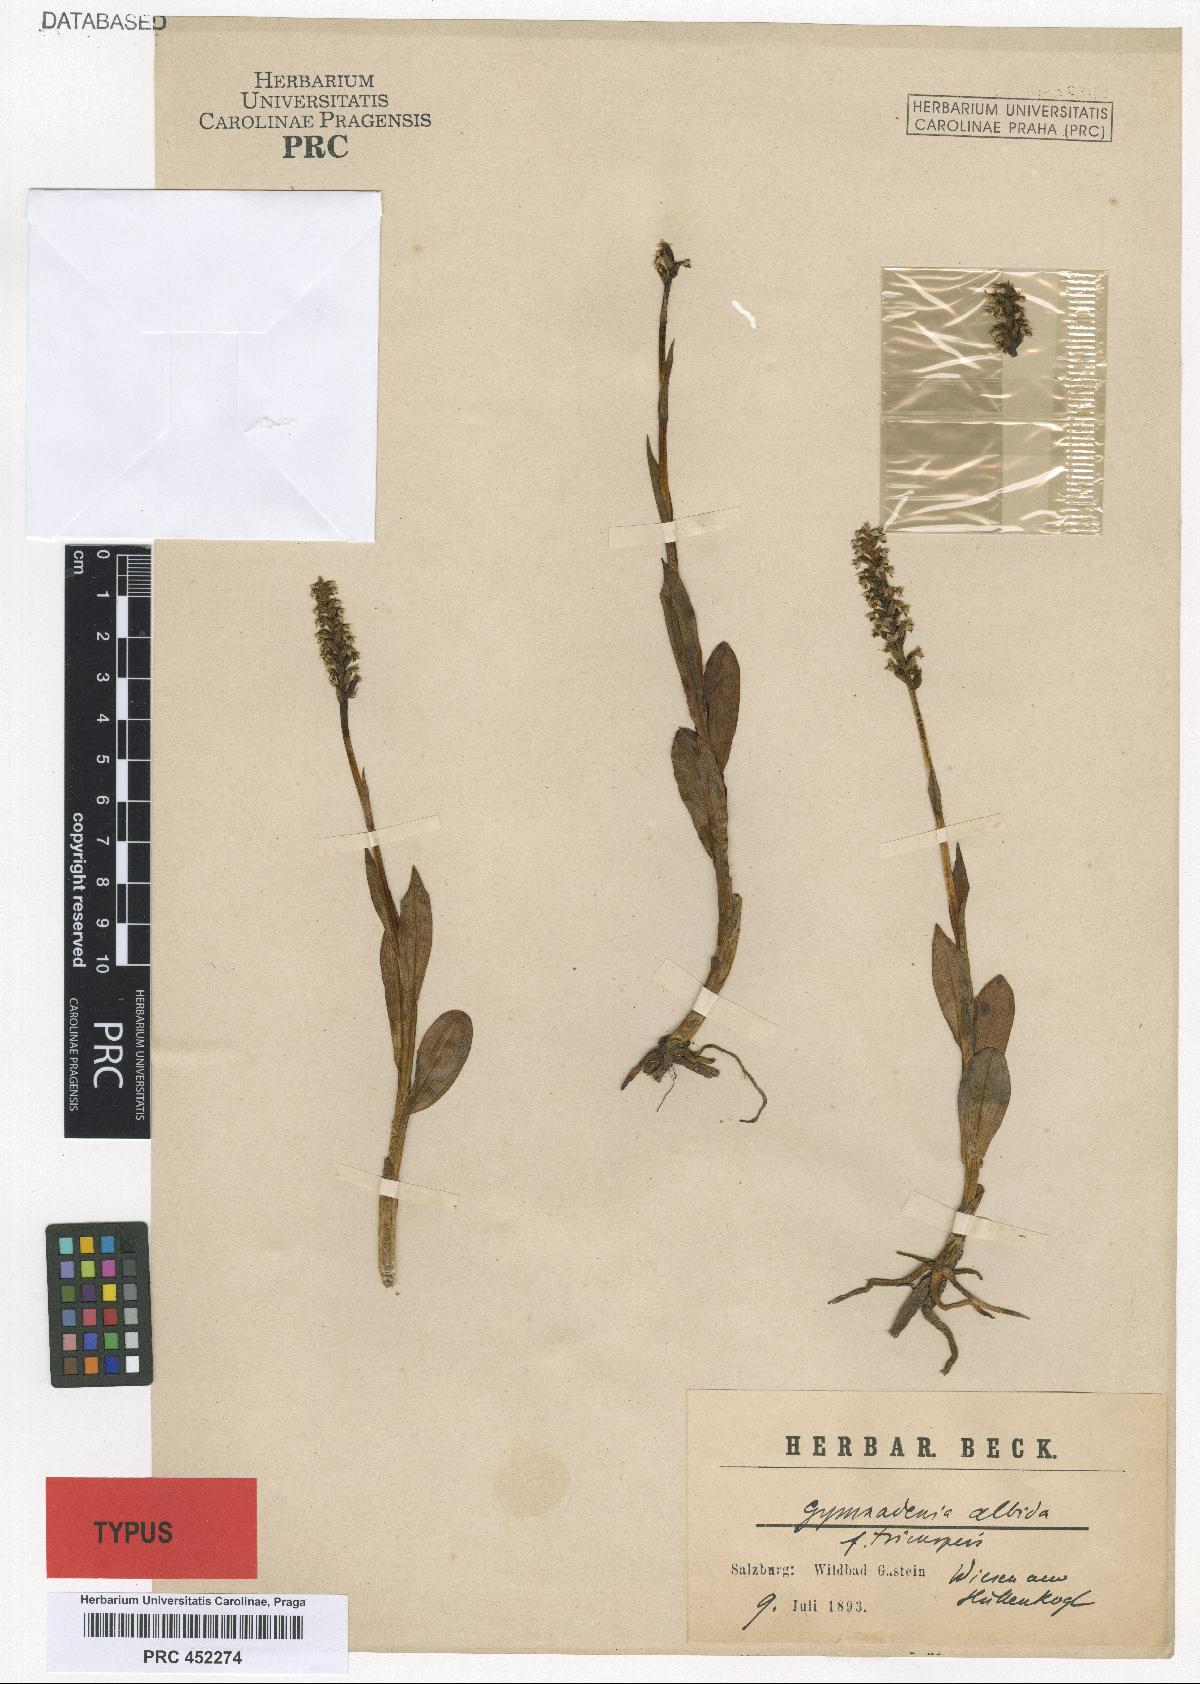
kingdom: Plantae
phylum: Tracheophyta
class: Liliopsida
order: Asparagales
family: Orchidaceae
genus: Pseudorchis
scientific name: Pseudorchis albida
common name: Small-white orchid
